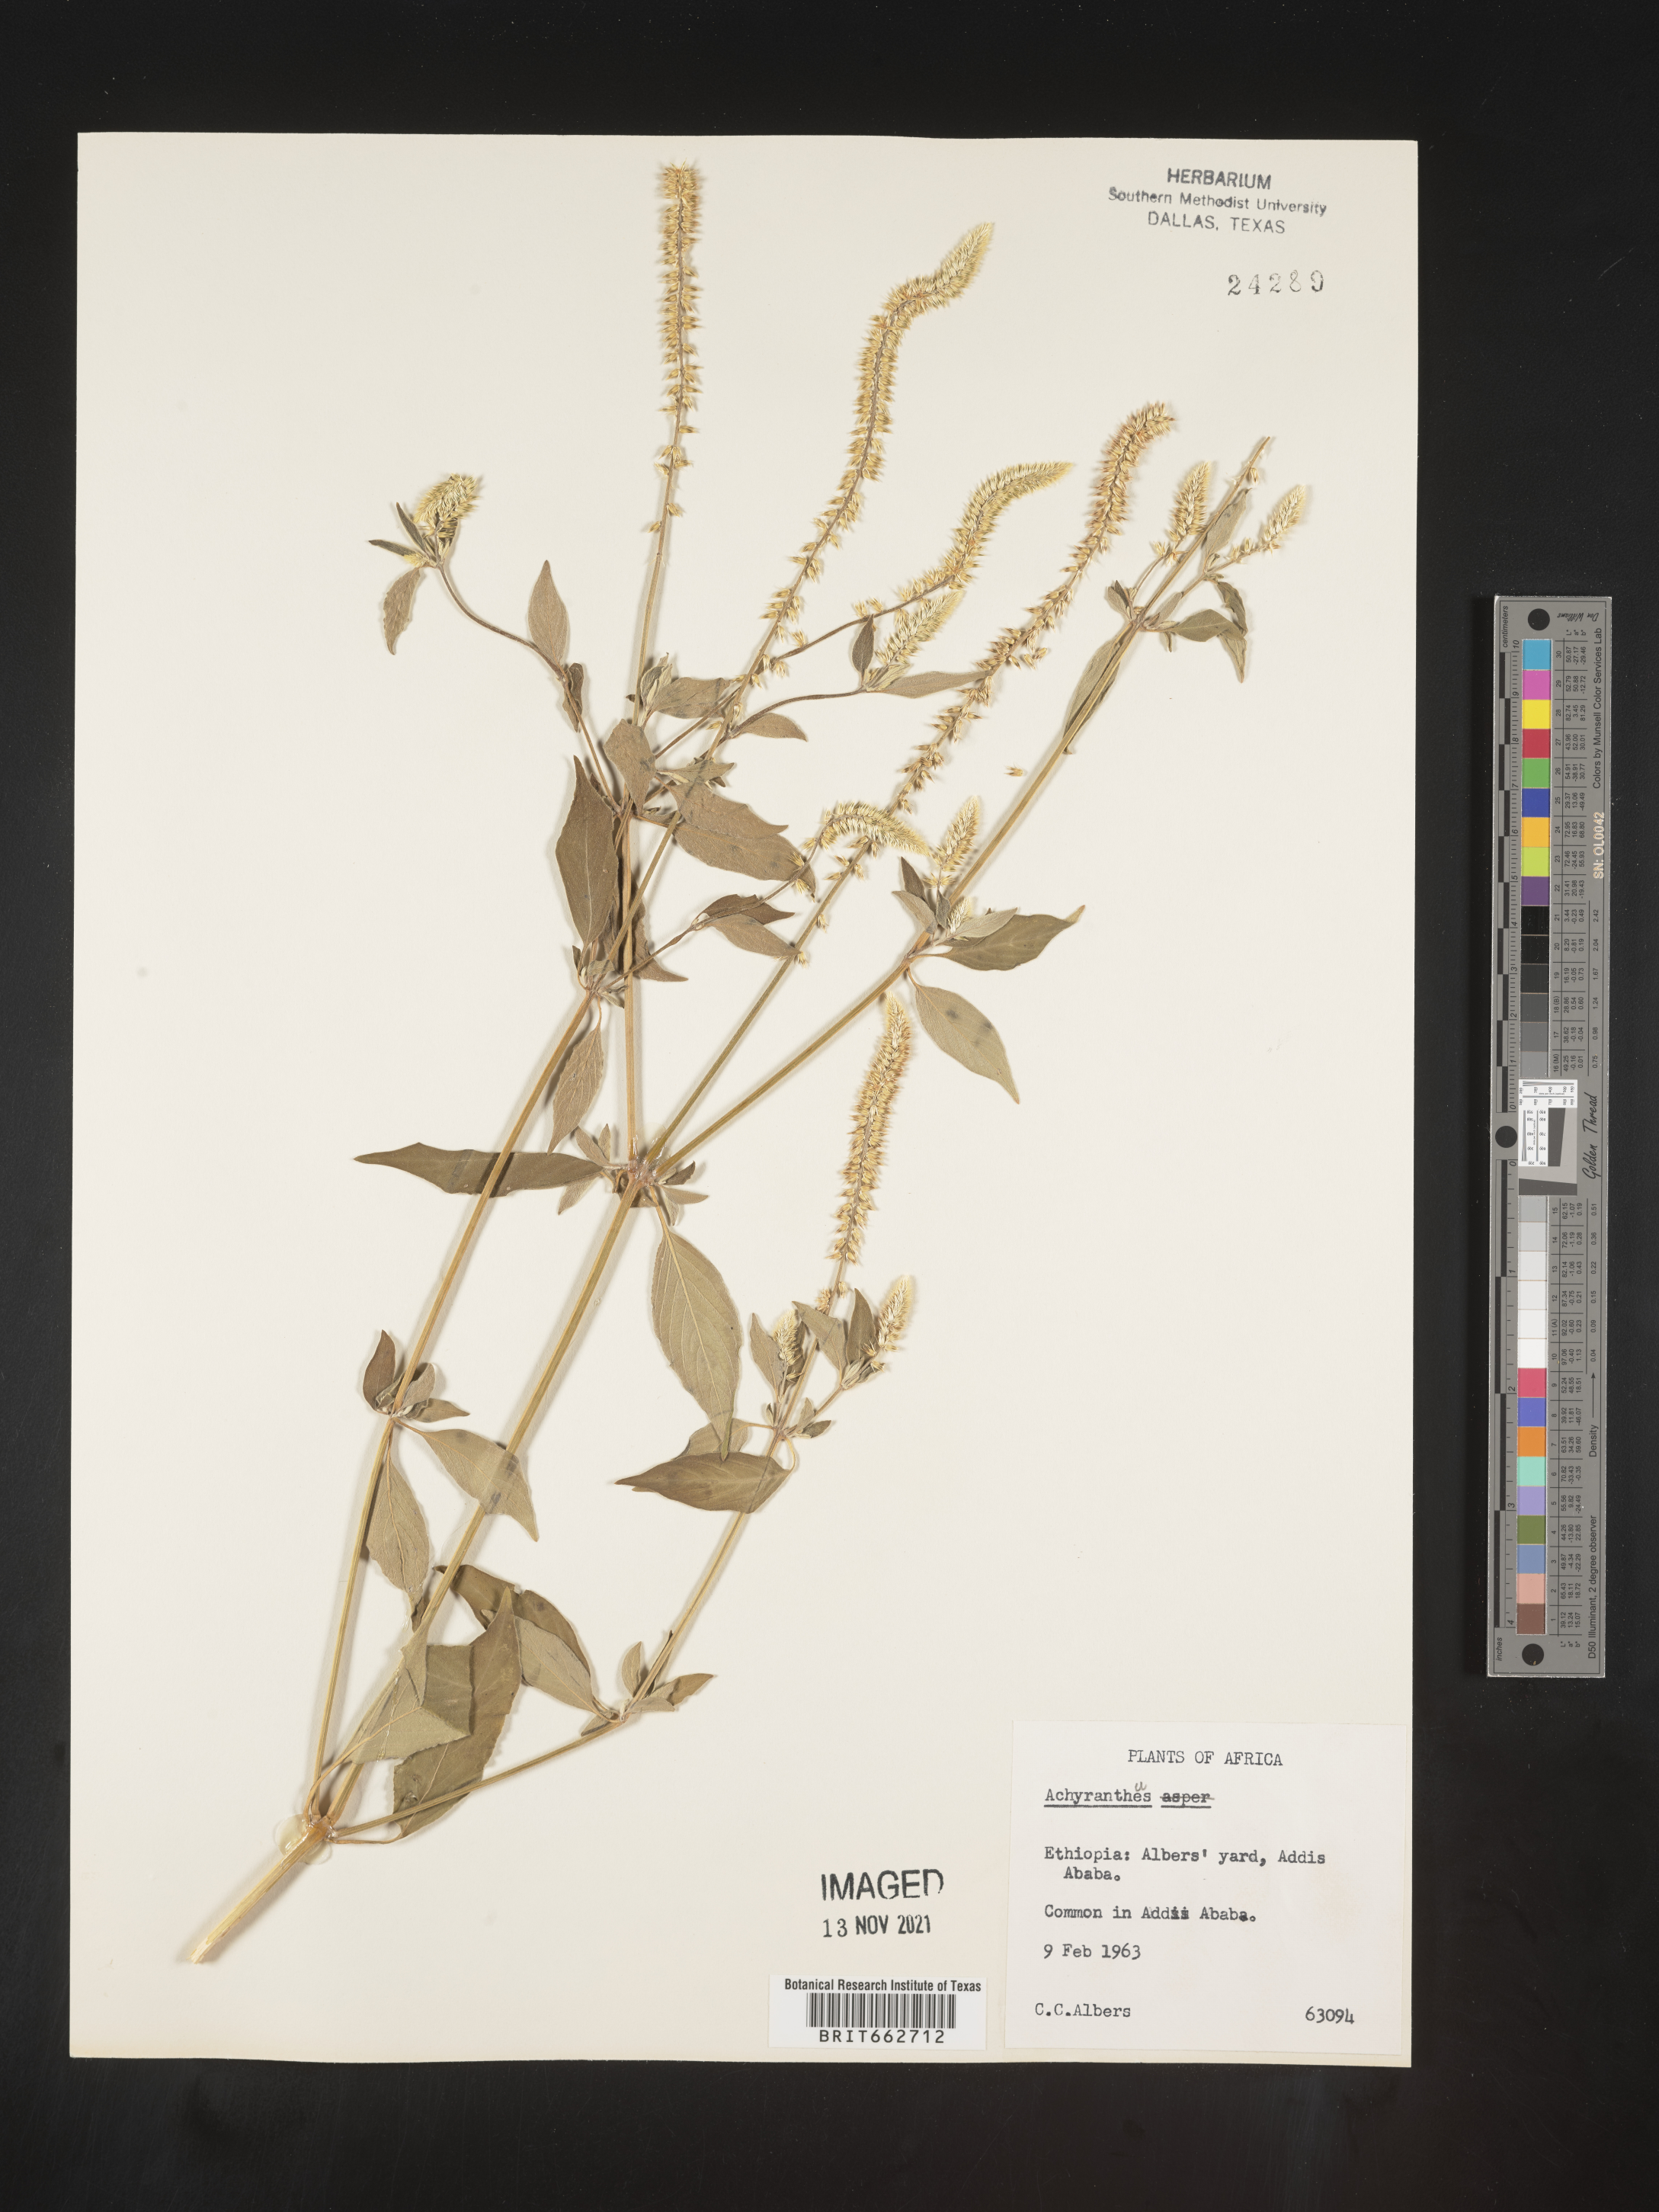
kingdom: Plantae
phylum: Tracheophyta
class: Magnoliopsida
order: Caryophyllales
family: Amaranthaceae
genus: Achyranthes
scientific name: Achyranthes
